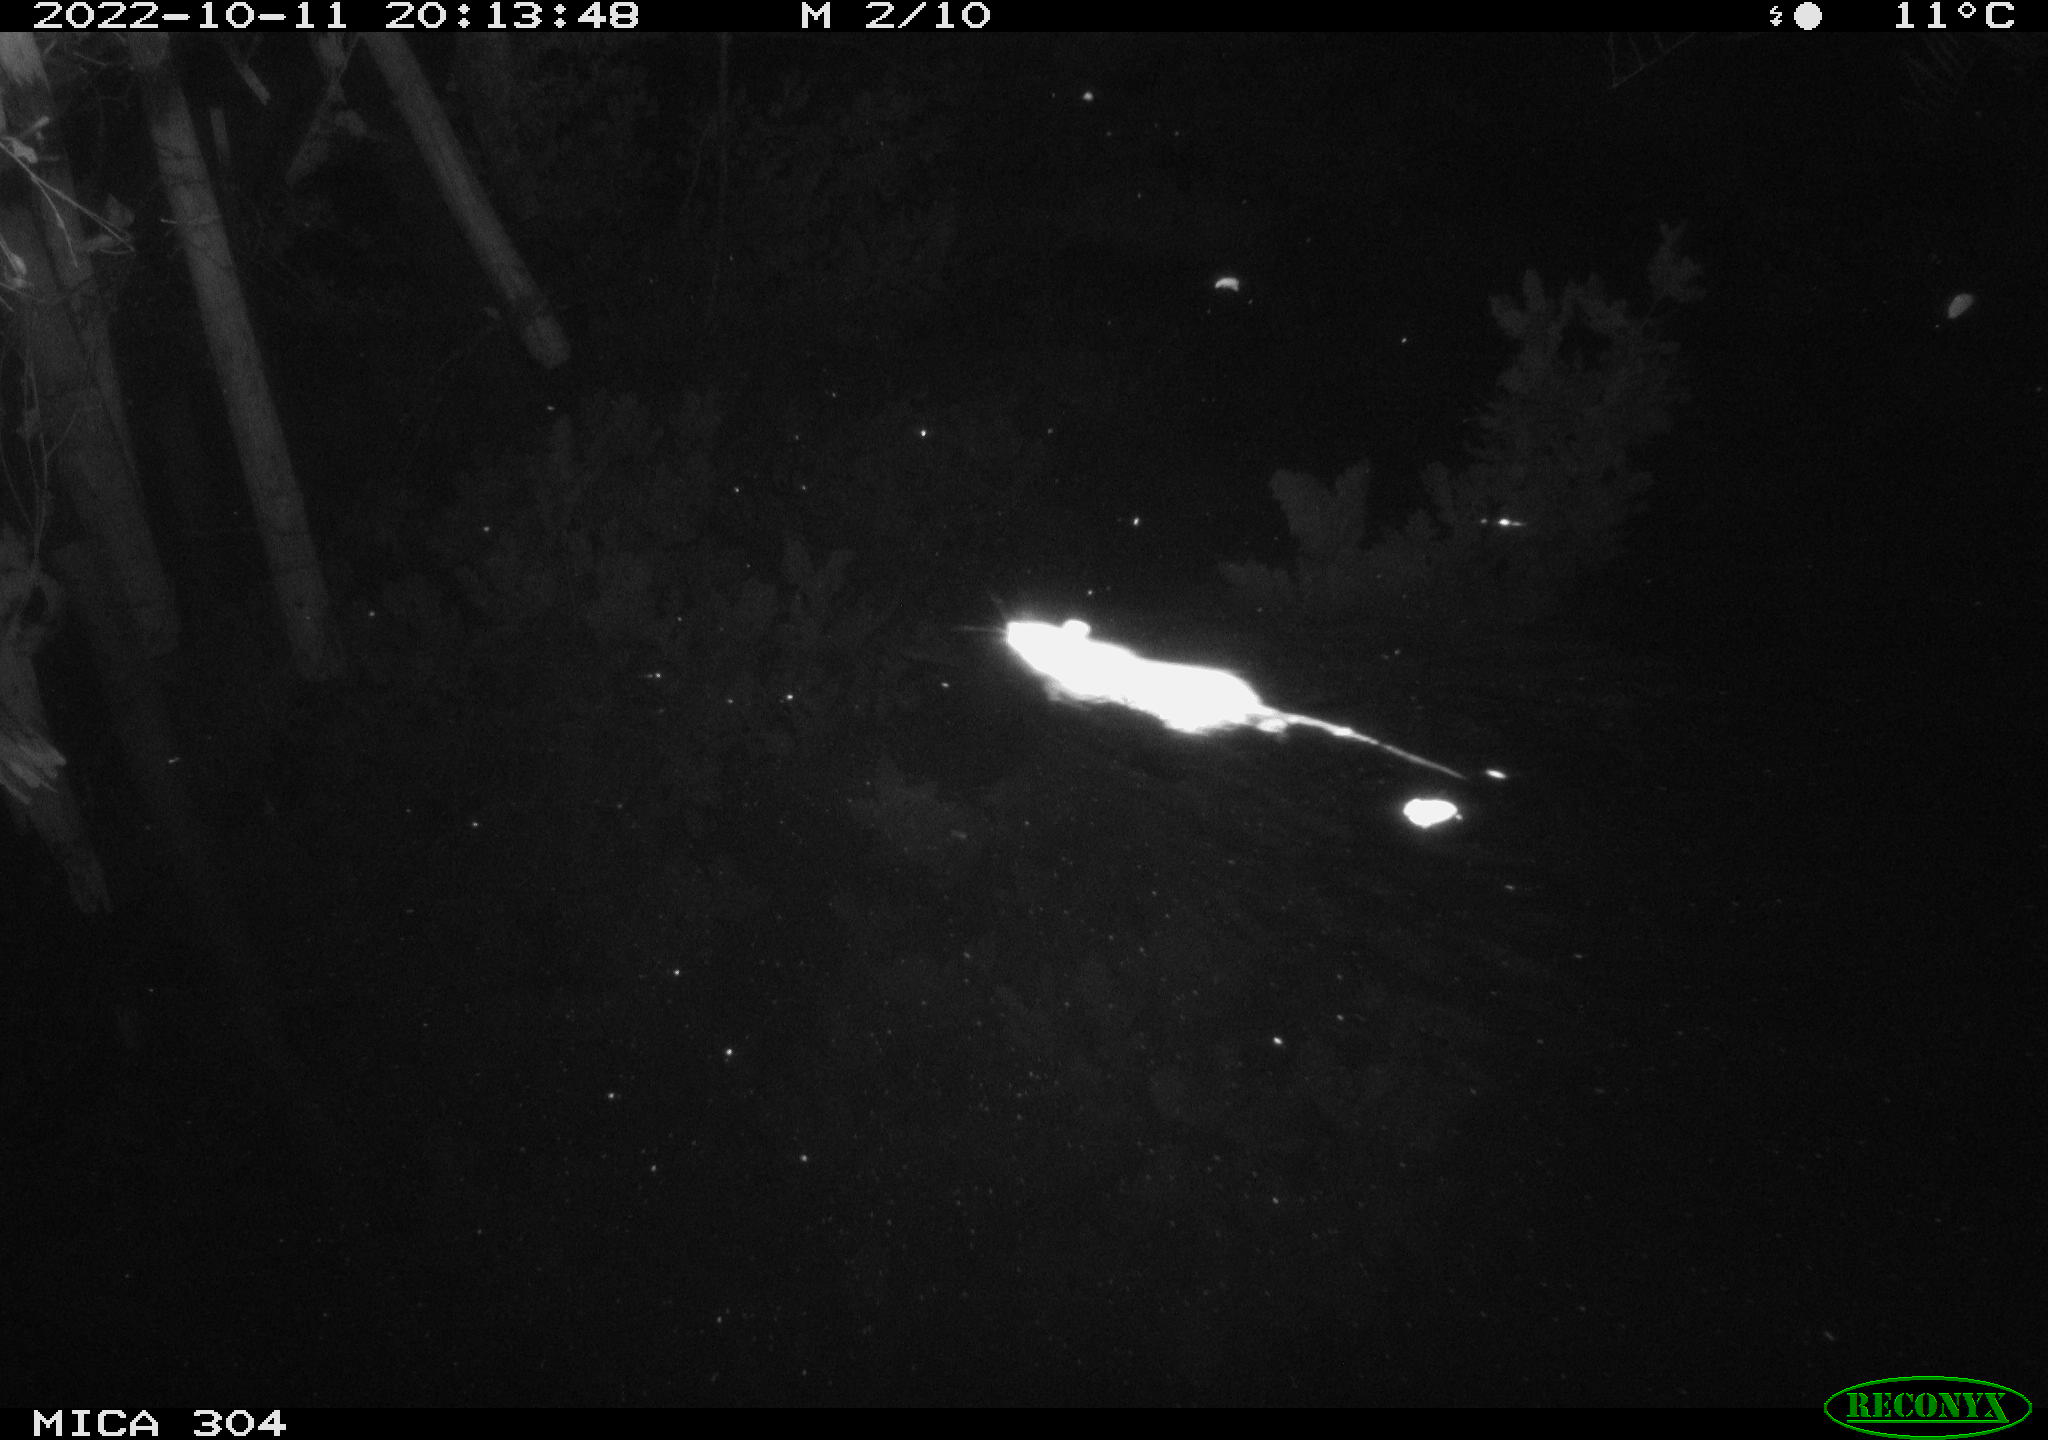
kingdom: Animalia
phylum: Chordata
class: Mammalia
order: Rodentia
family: Muridae
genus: Rattus
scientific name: Rattus norvegicus
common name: Brown rat
